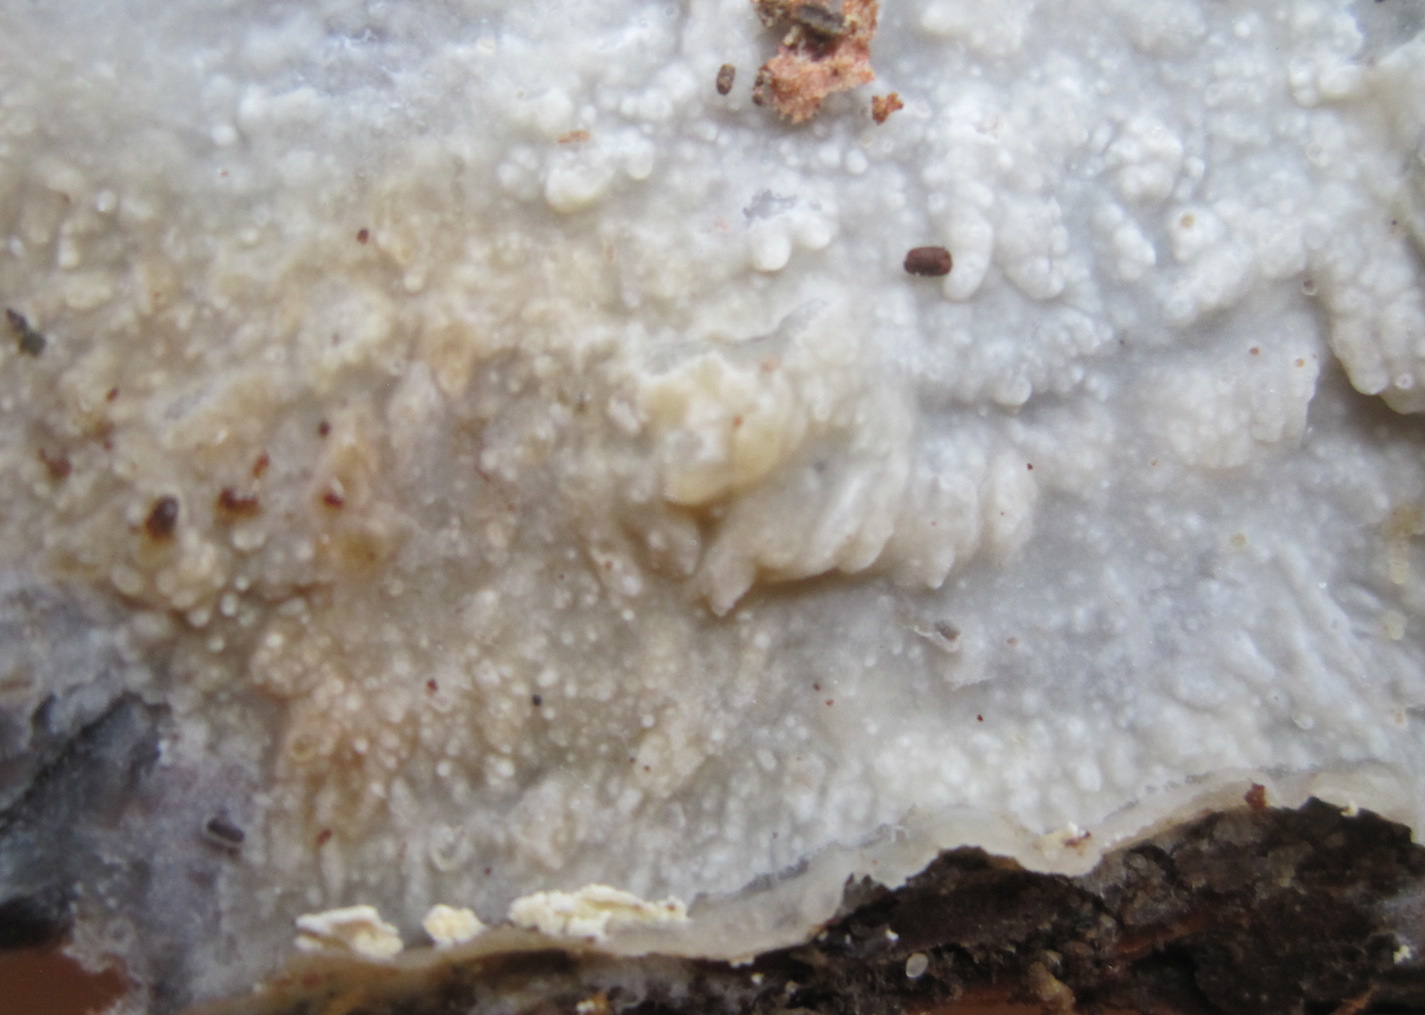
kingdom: Fungi
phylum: Basidiomycota
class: Agaricomycetes
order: Polyporales
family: Phanerochaetaceae
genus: Phlebiopsis
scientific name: Phlebiopsis gigantea
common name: kæmpebarksvamp
